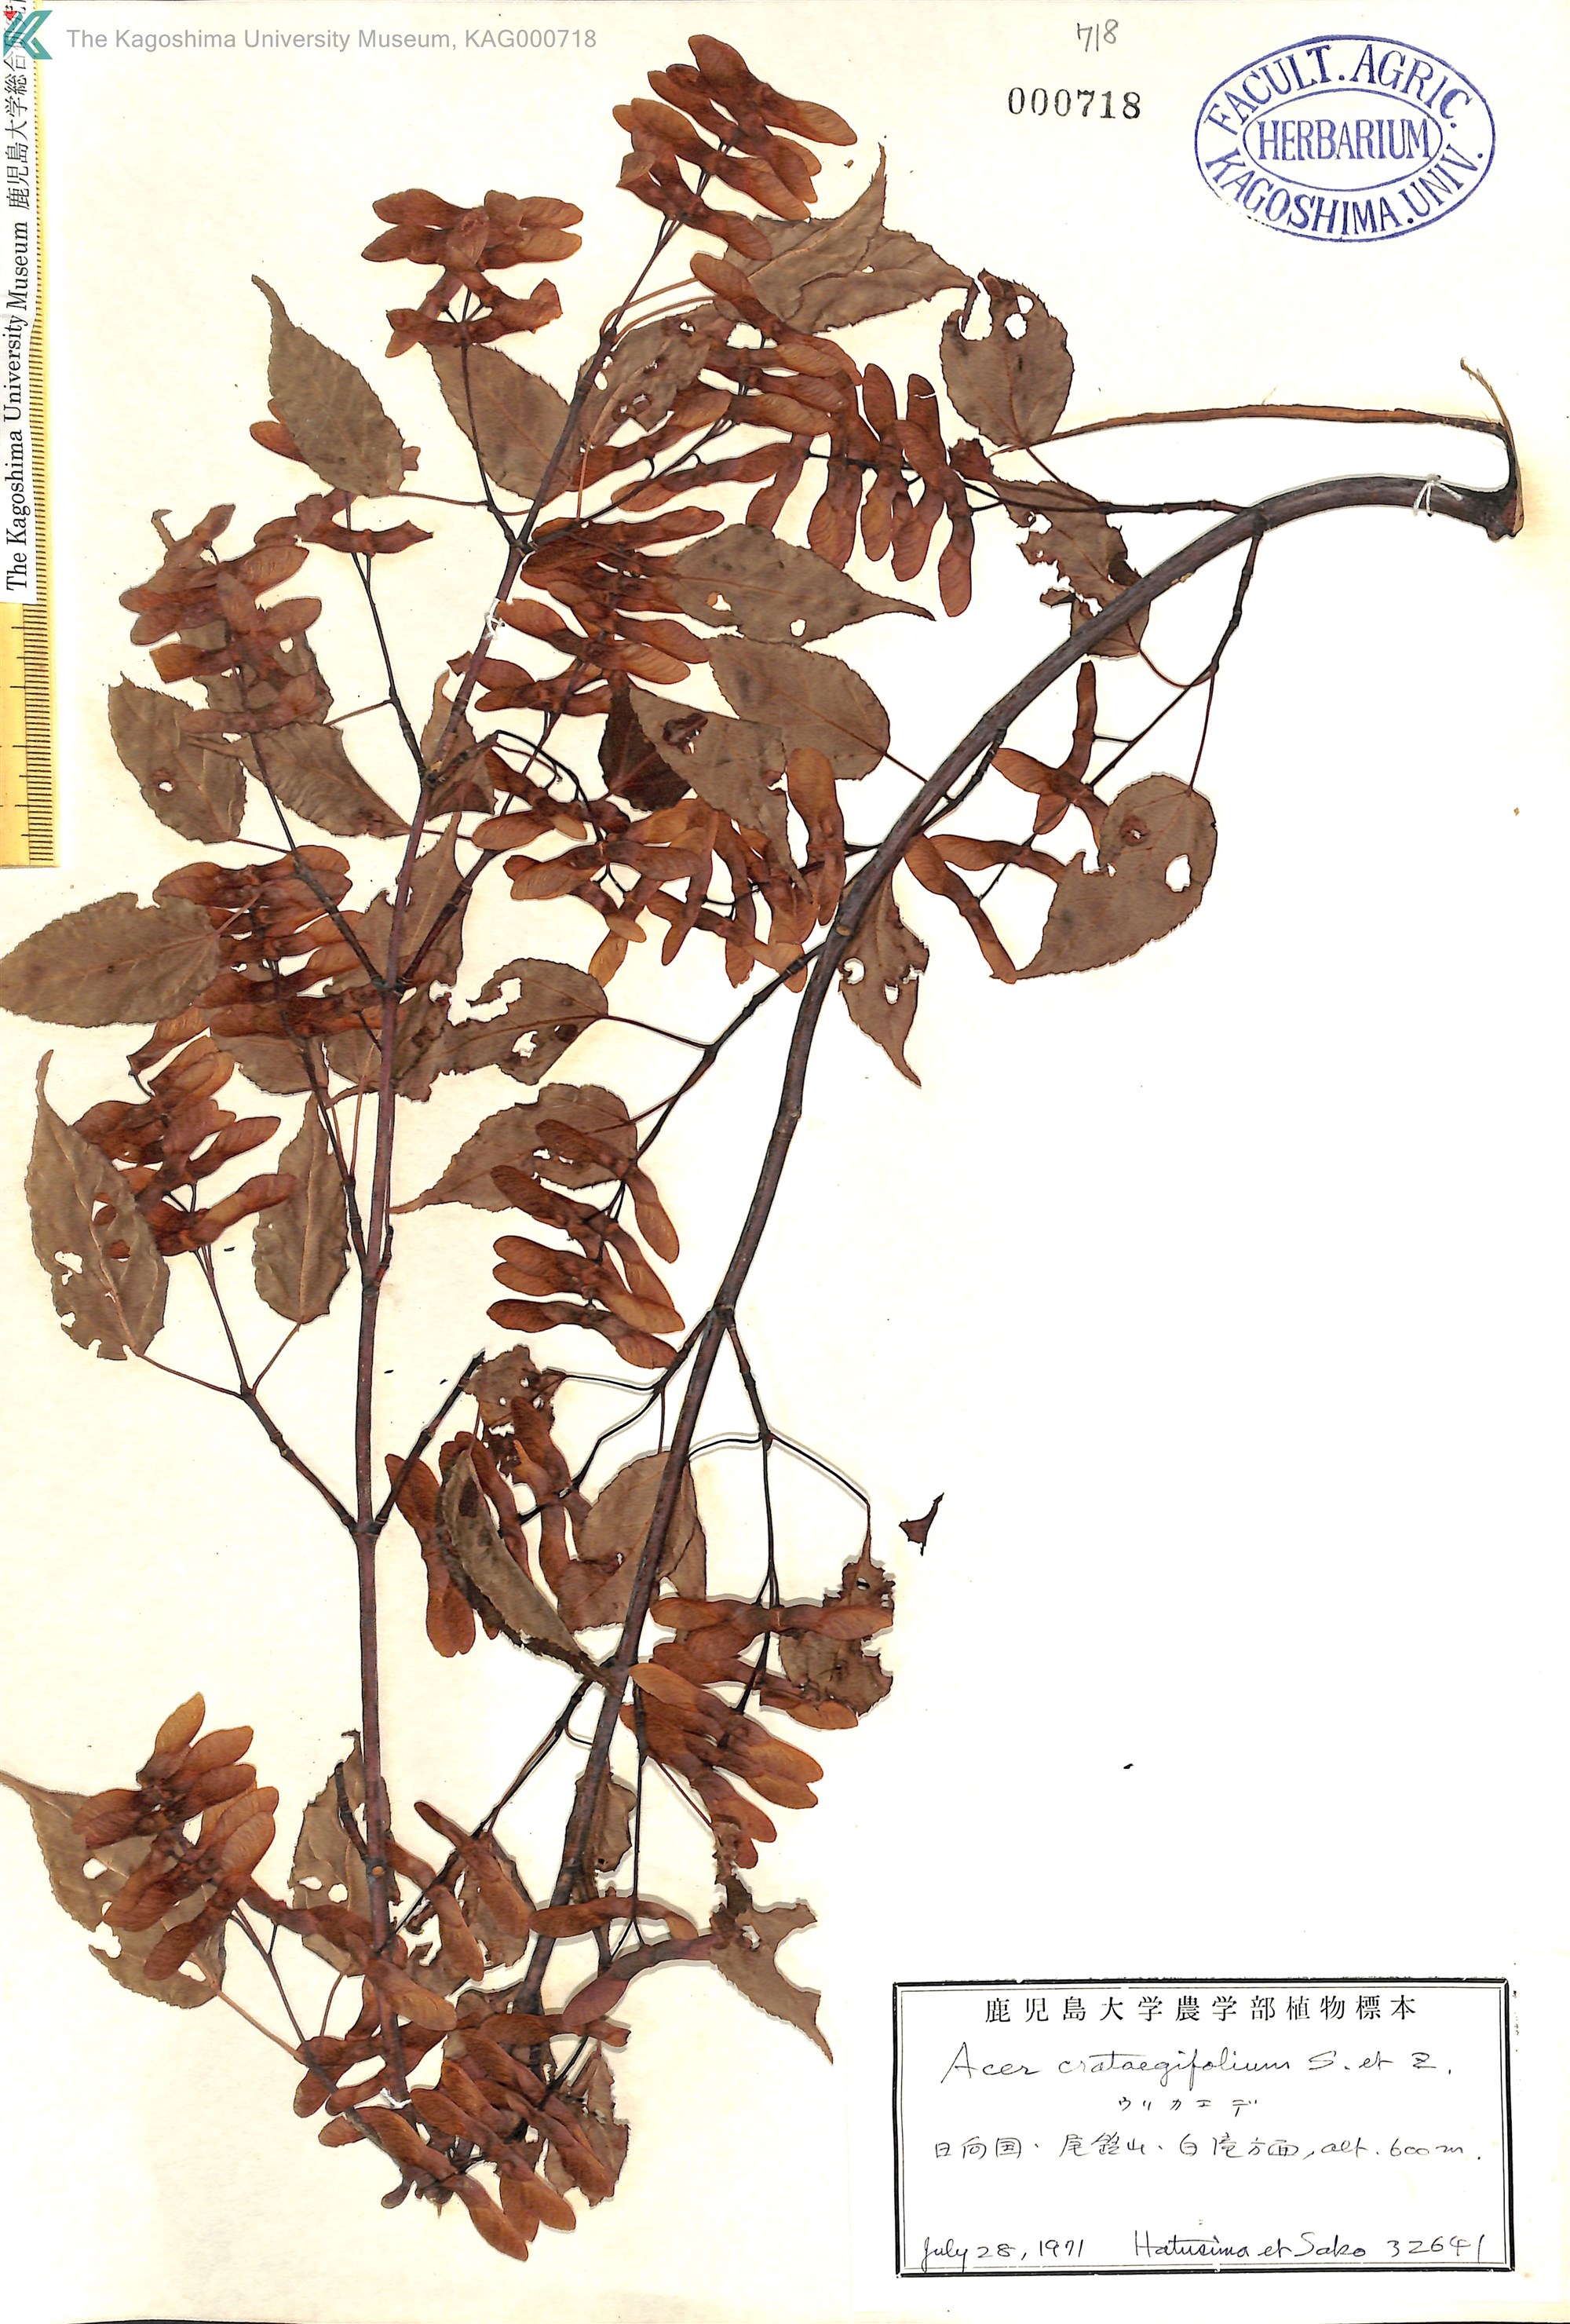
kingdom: Plantae
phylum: Tracheophyta
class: Magnoliopsida
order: Sapindales
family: Sapindaceae
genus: Acer
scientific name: Acer crataegifolium
